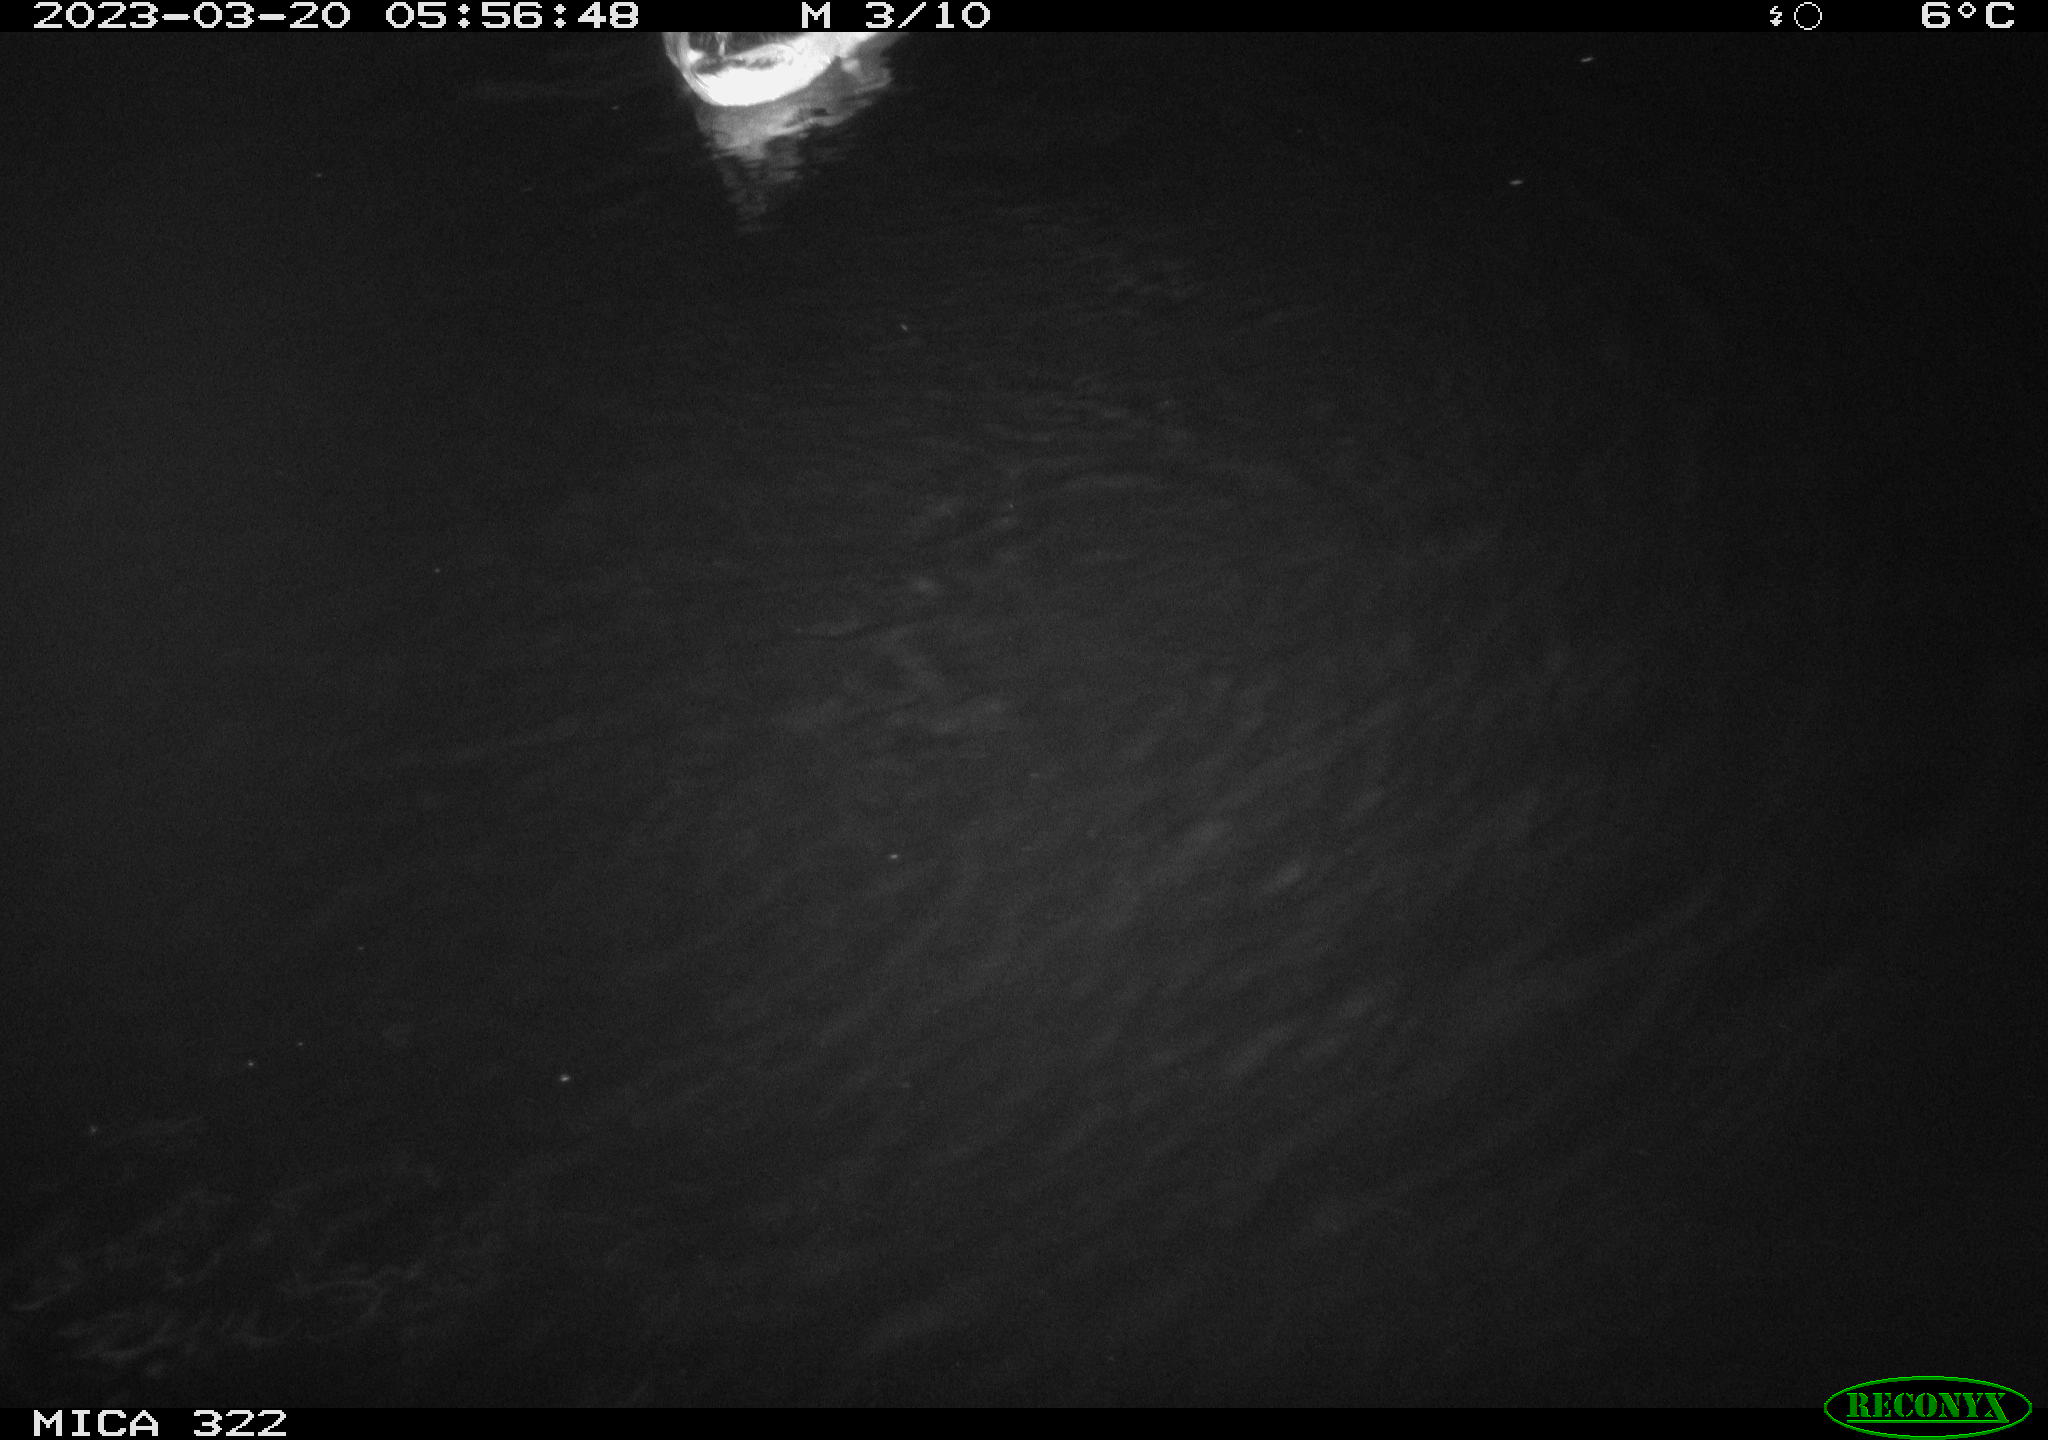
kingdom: Animalia
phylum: Chordata
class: Aves
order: Anseriformes
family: Anatidae
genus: Anas
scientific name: Anas
